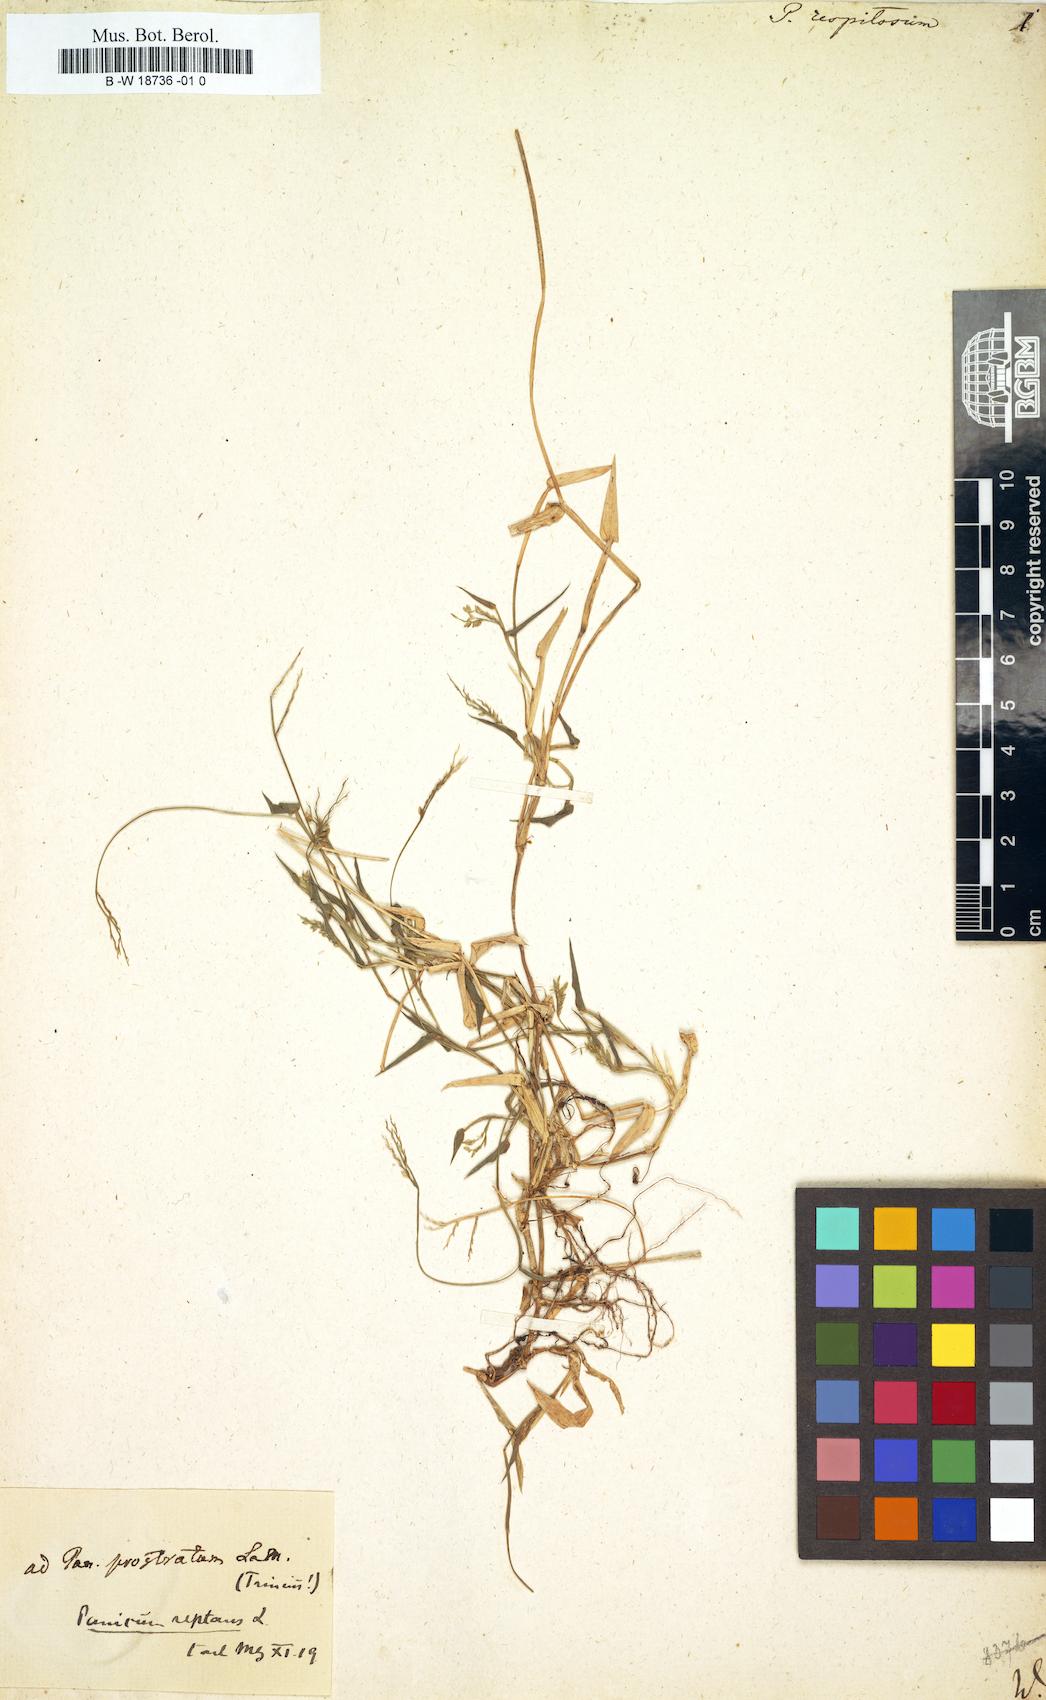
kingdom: Plantae
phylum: Tracheophyta
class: Liliopsida
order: Poales
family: Poaceae
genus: Urochloa
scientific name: Urochloa reptans
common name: Sprawling signalgrass
